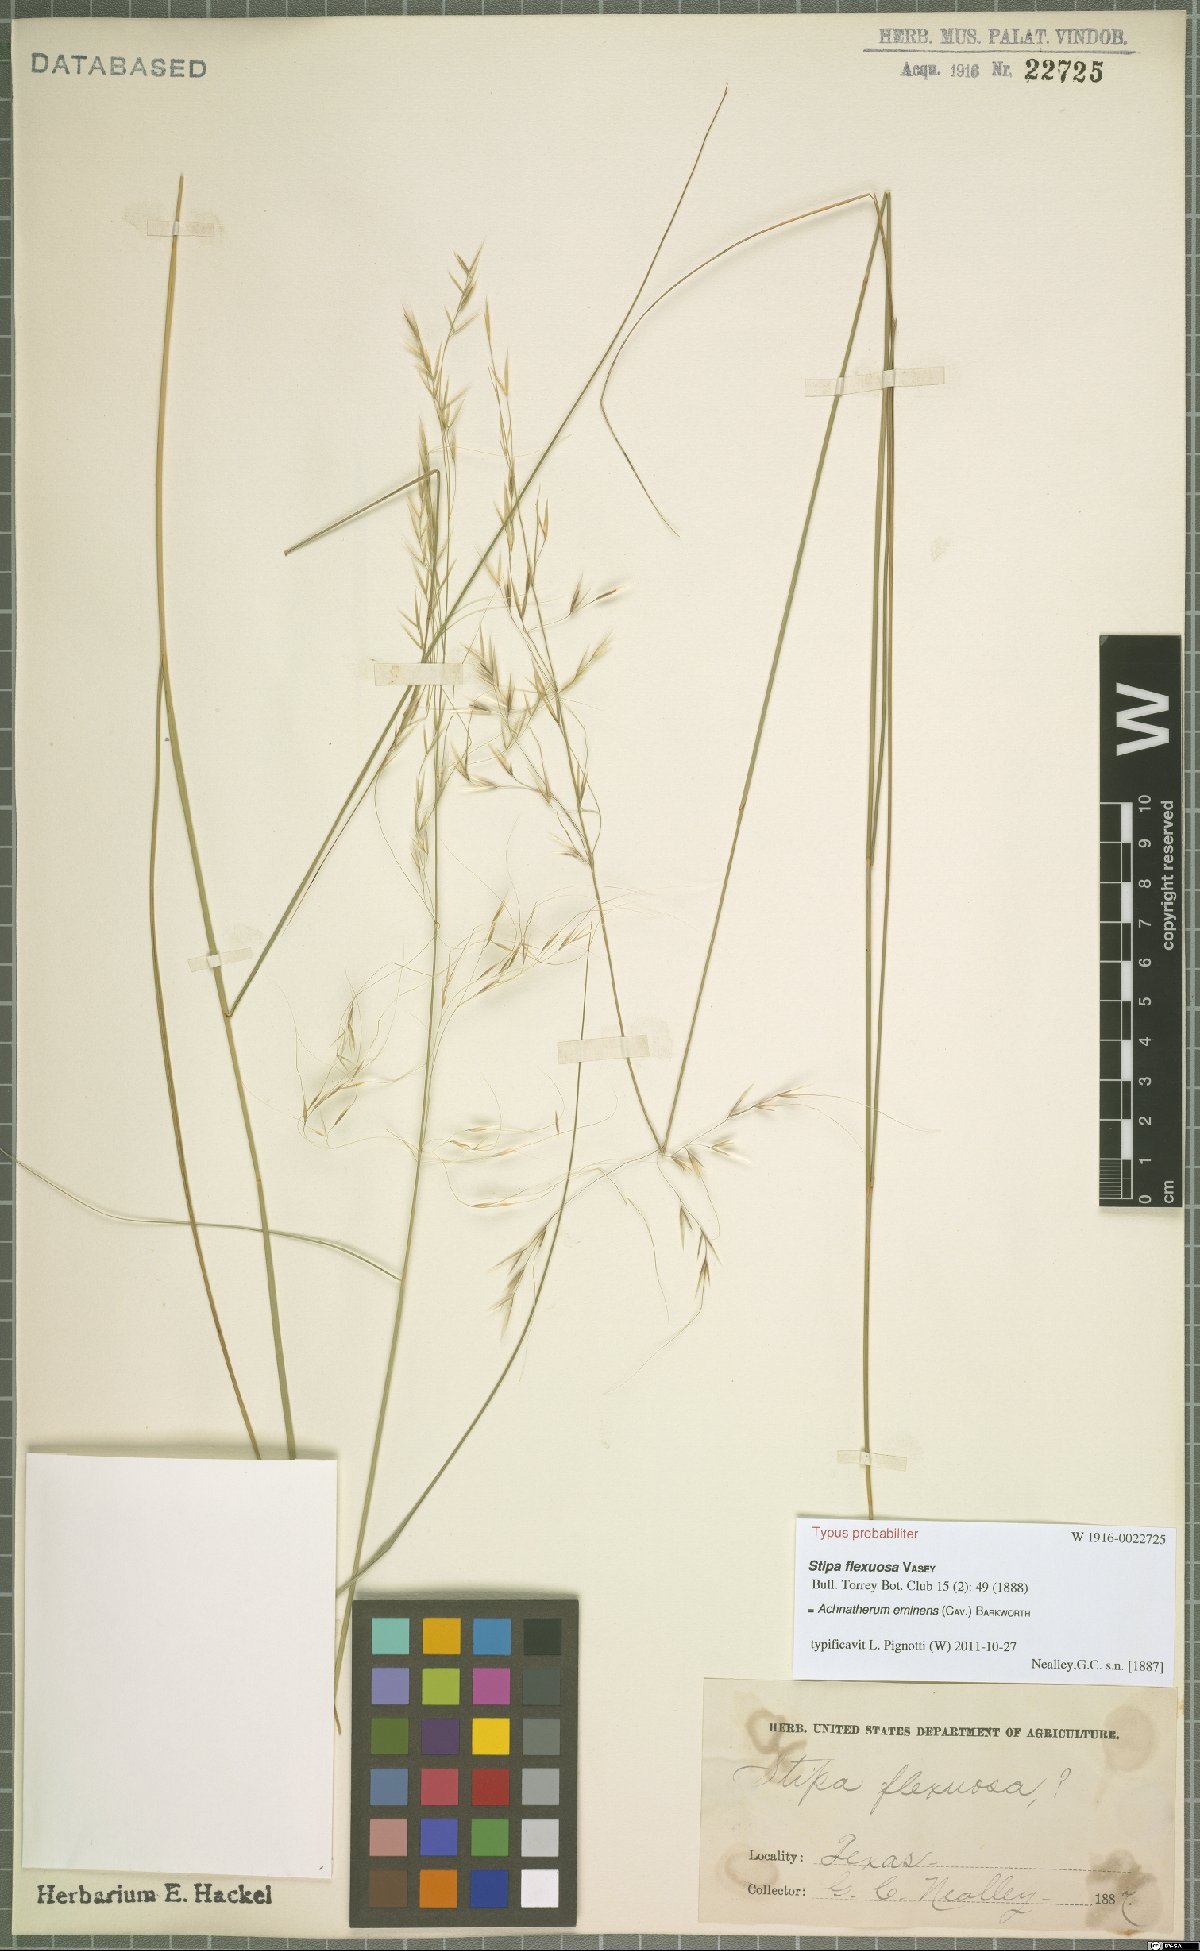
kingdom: Plantae
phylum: Tracheophyta
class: Liliopsida
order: Poales
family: Poaceae
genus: Pseudoeriocoma
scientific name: Pseudoeriocoma eminens
